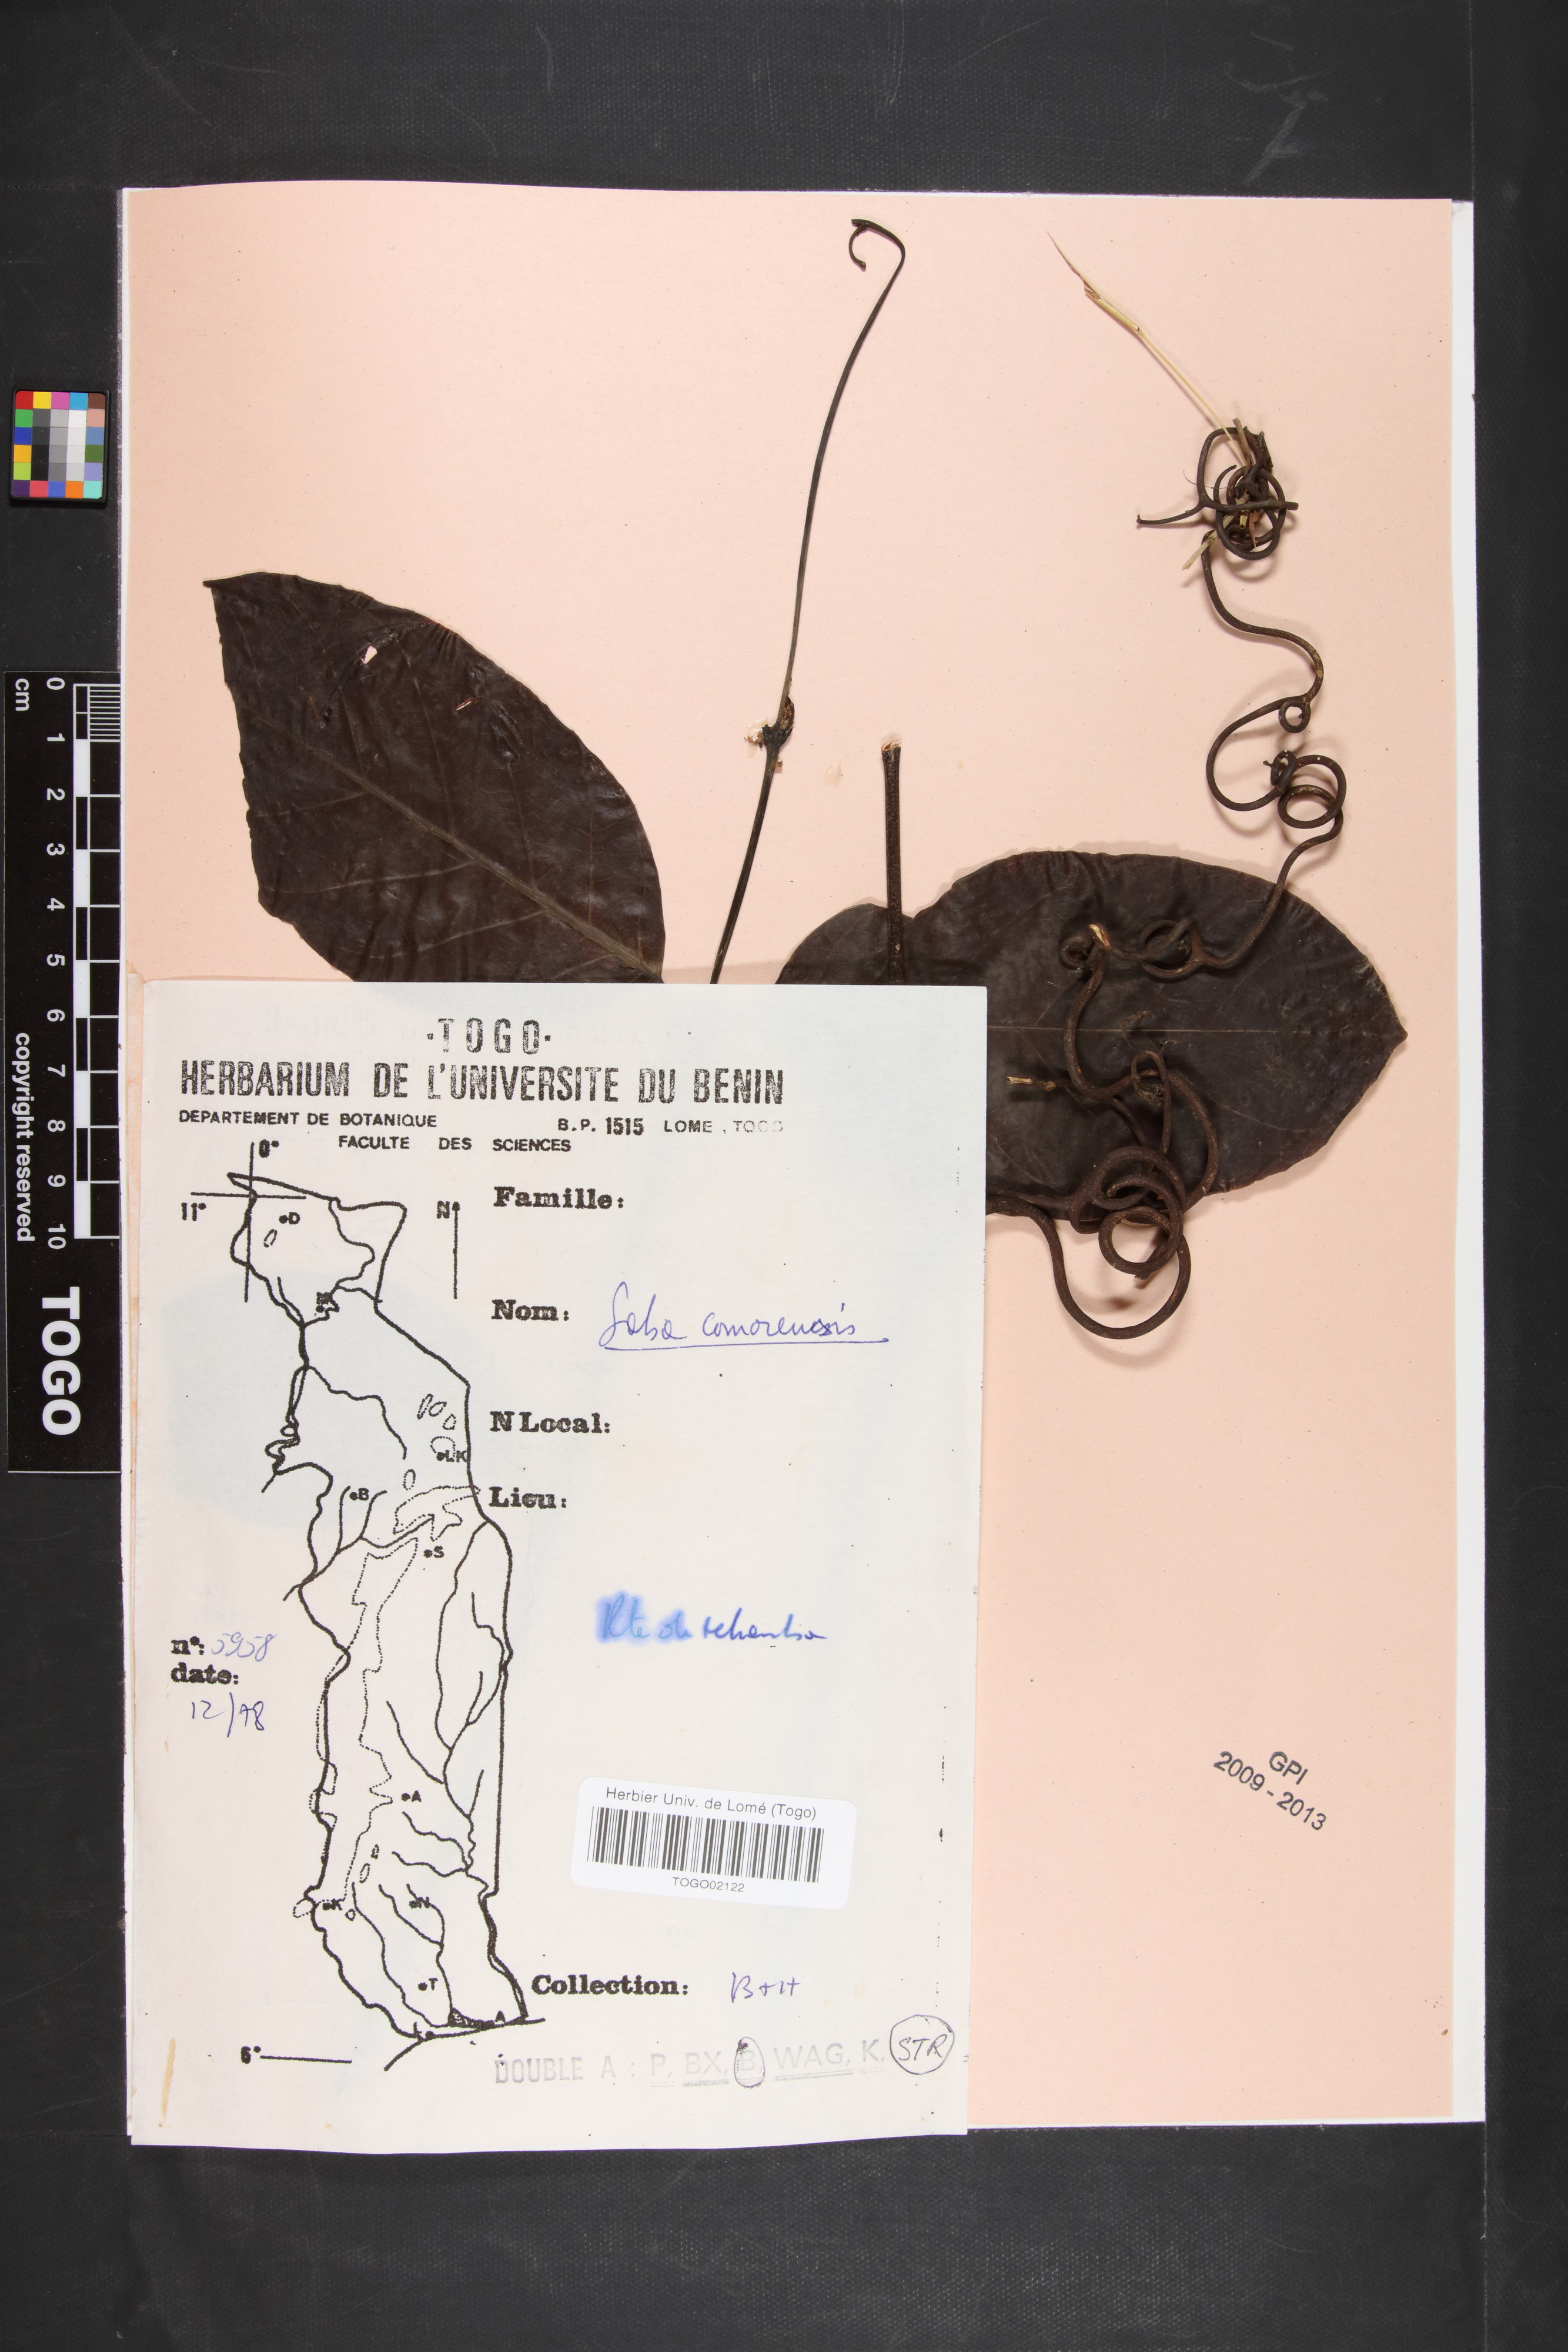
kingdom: Plantae
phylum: Tracheophyta
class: Magnoliopsida
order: Gentianales
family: Apocynaceae
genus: Saba
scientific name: Saba comorensis
